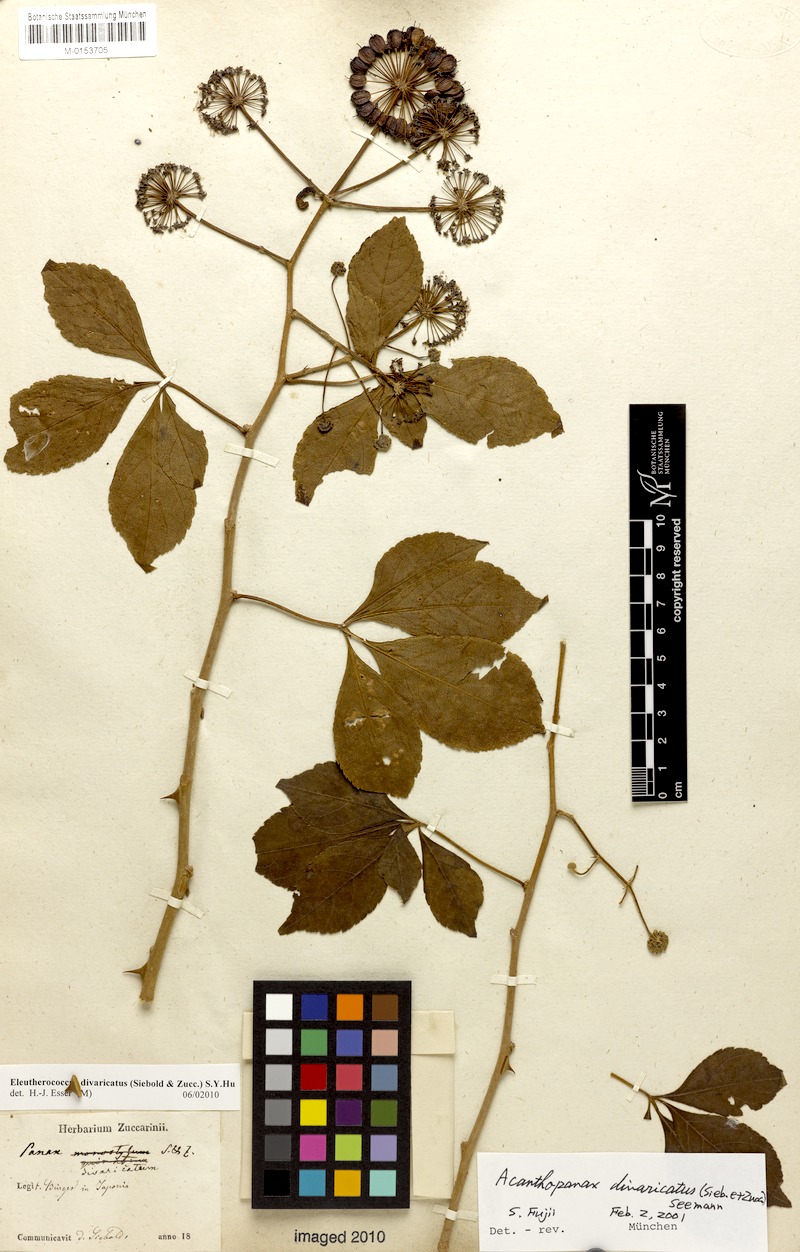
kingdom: Plantae
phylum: Tracheophyta
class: Magnoliopsida
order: Apiales
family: Araliaceae
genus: Eleutherococcus
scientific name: Eleutherococcus divaricatus
